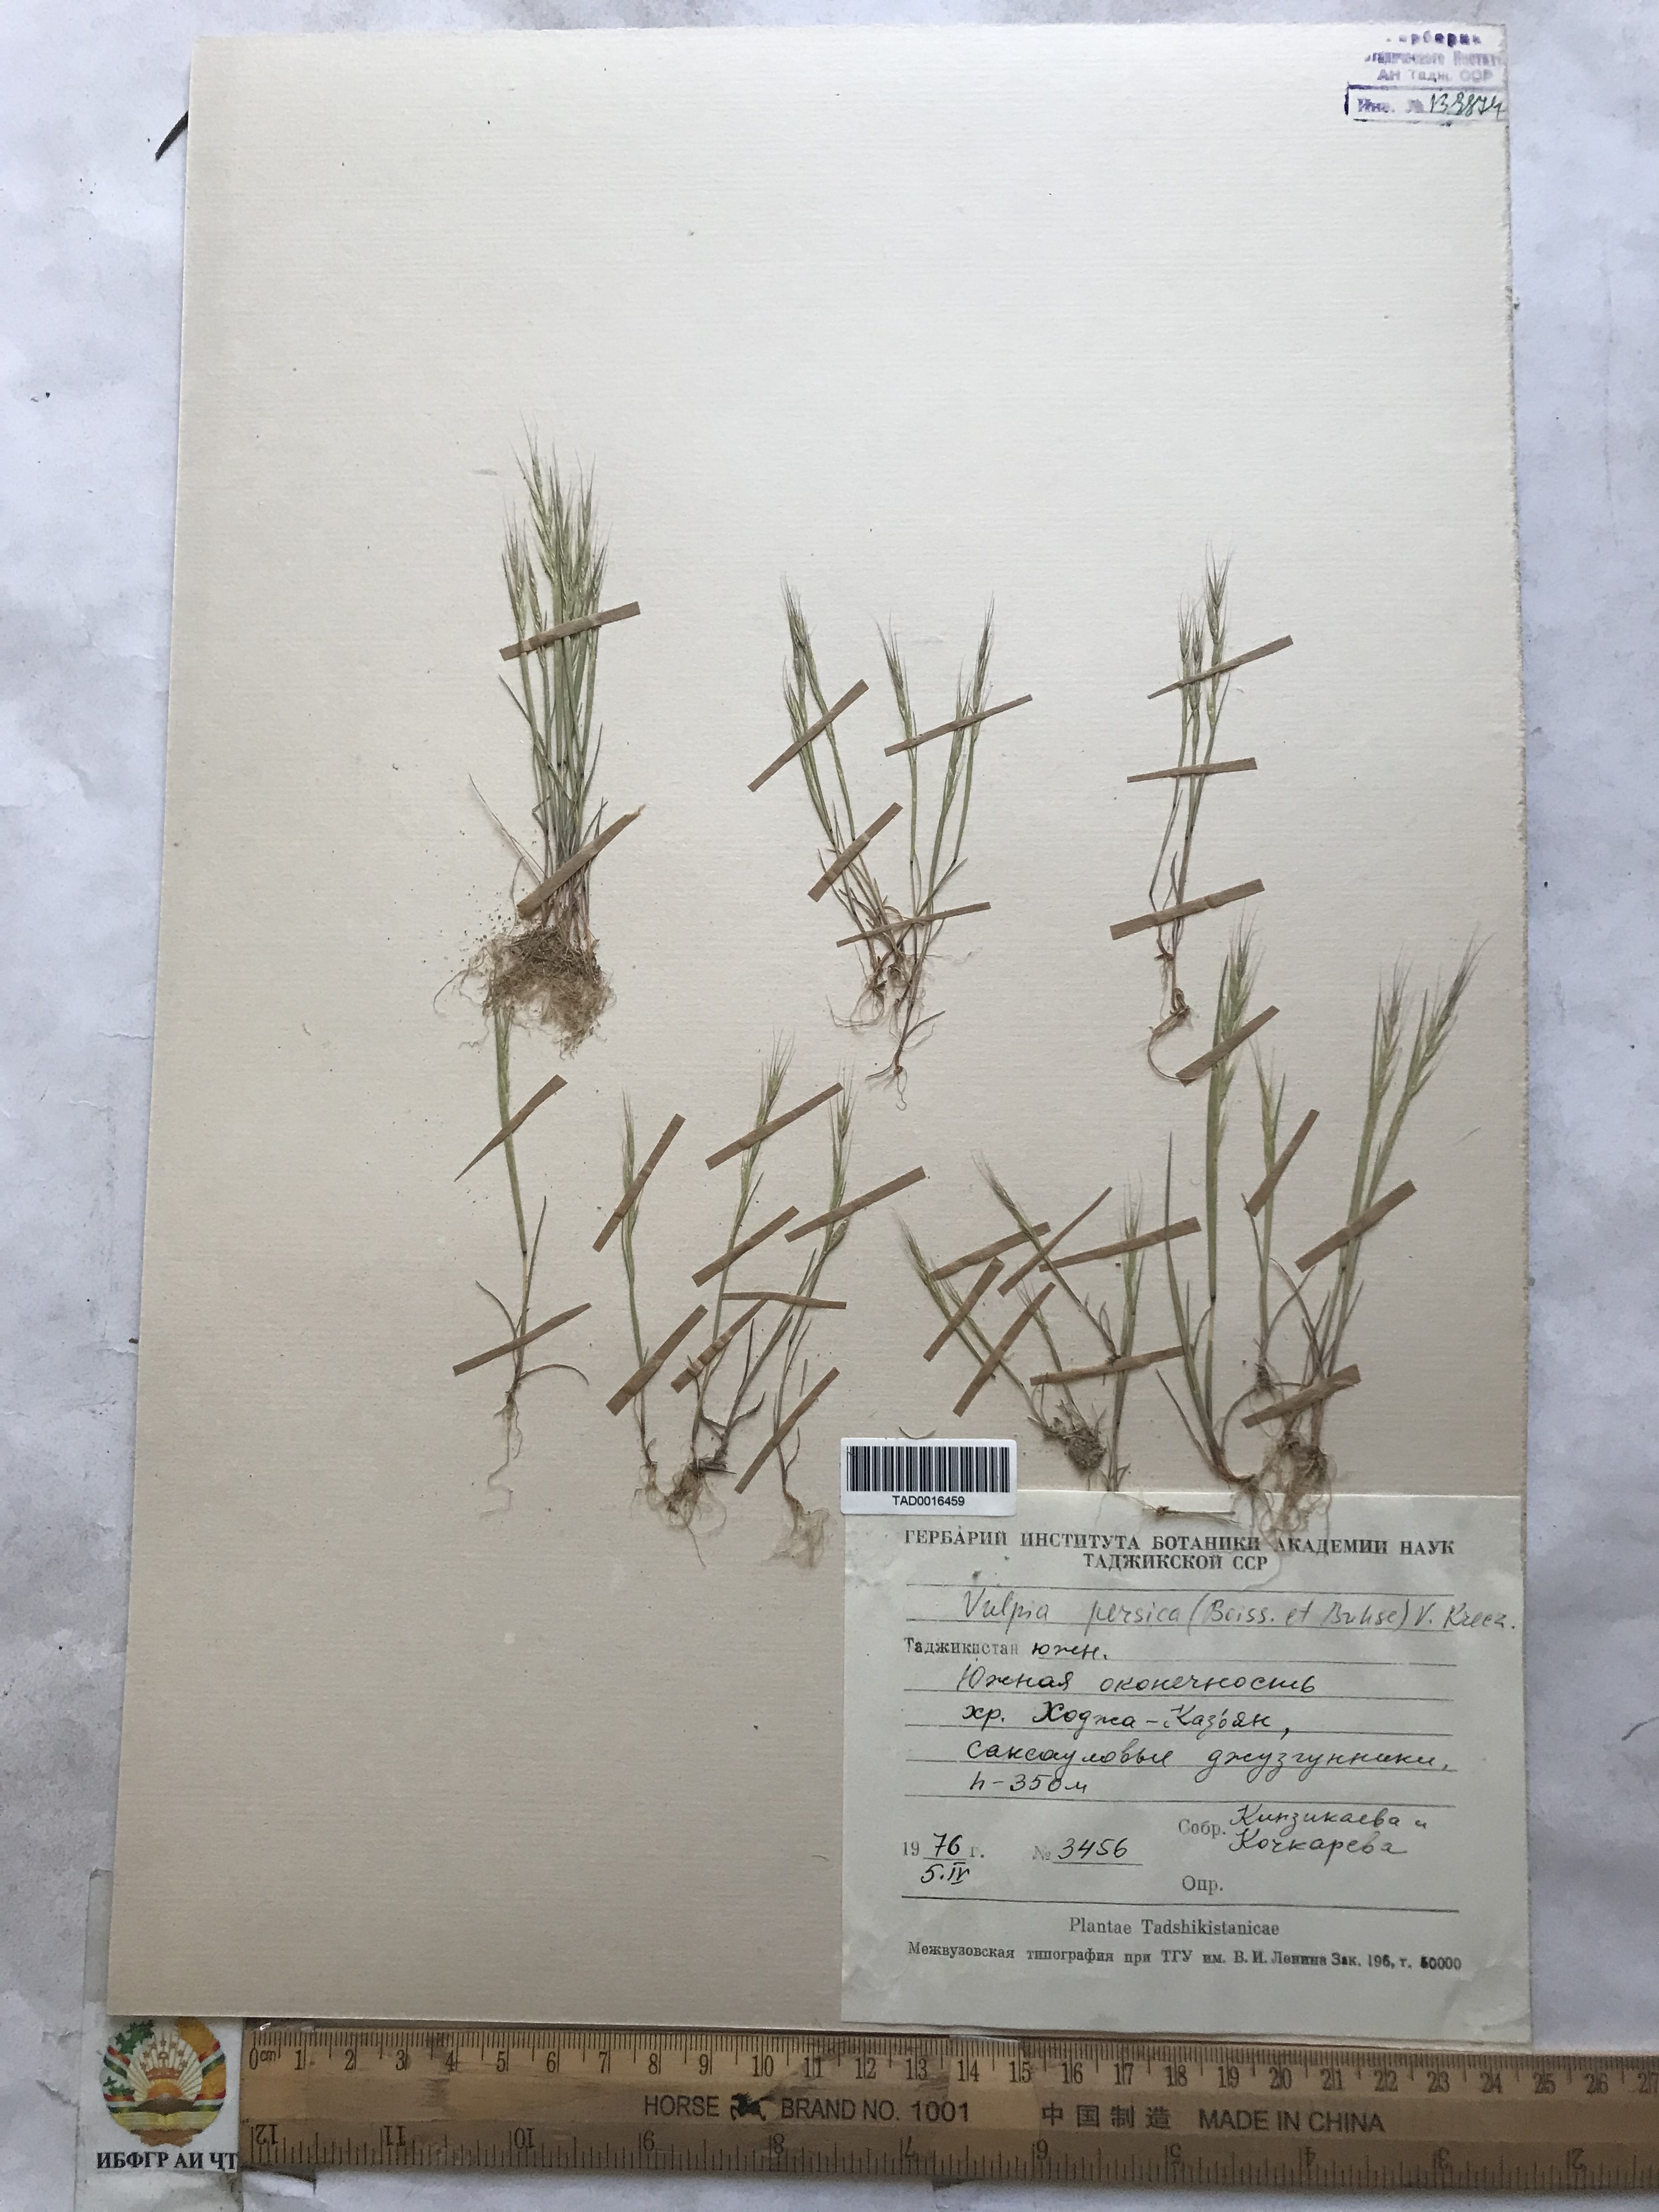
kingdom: Plantae
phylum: Tracheophyta
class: Liliopsida
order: Poales
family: Poaceae
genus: Festuca
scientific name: Festuca Vulpia persica
